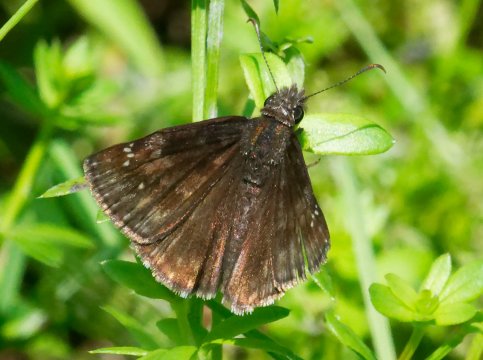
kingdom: Animalia
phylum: Arthropoda
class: Insecta
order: Lepidoptera
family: Hesperiidae
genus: Gesta
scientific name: Gesta
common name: Wild Indigo Duskywing
